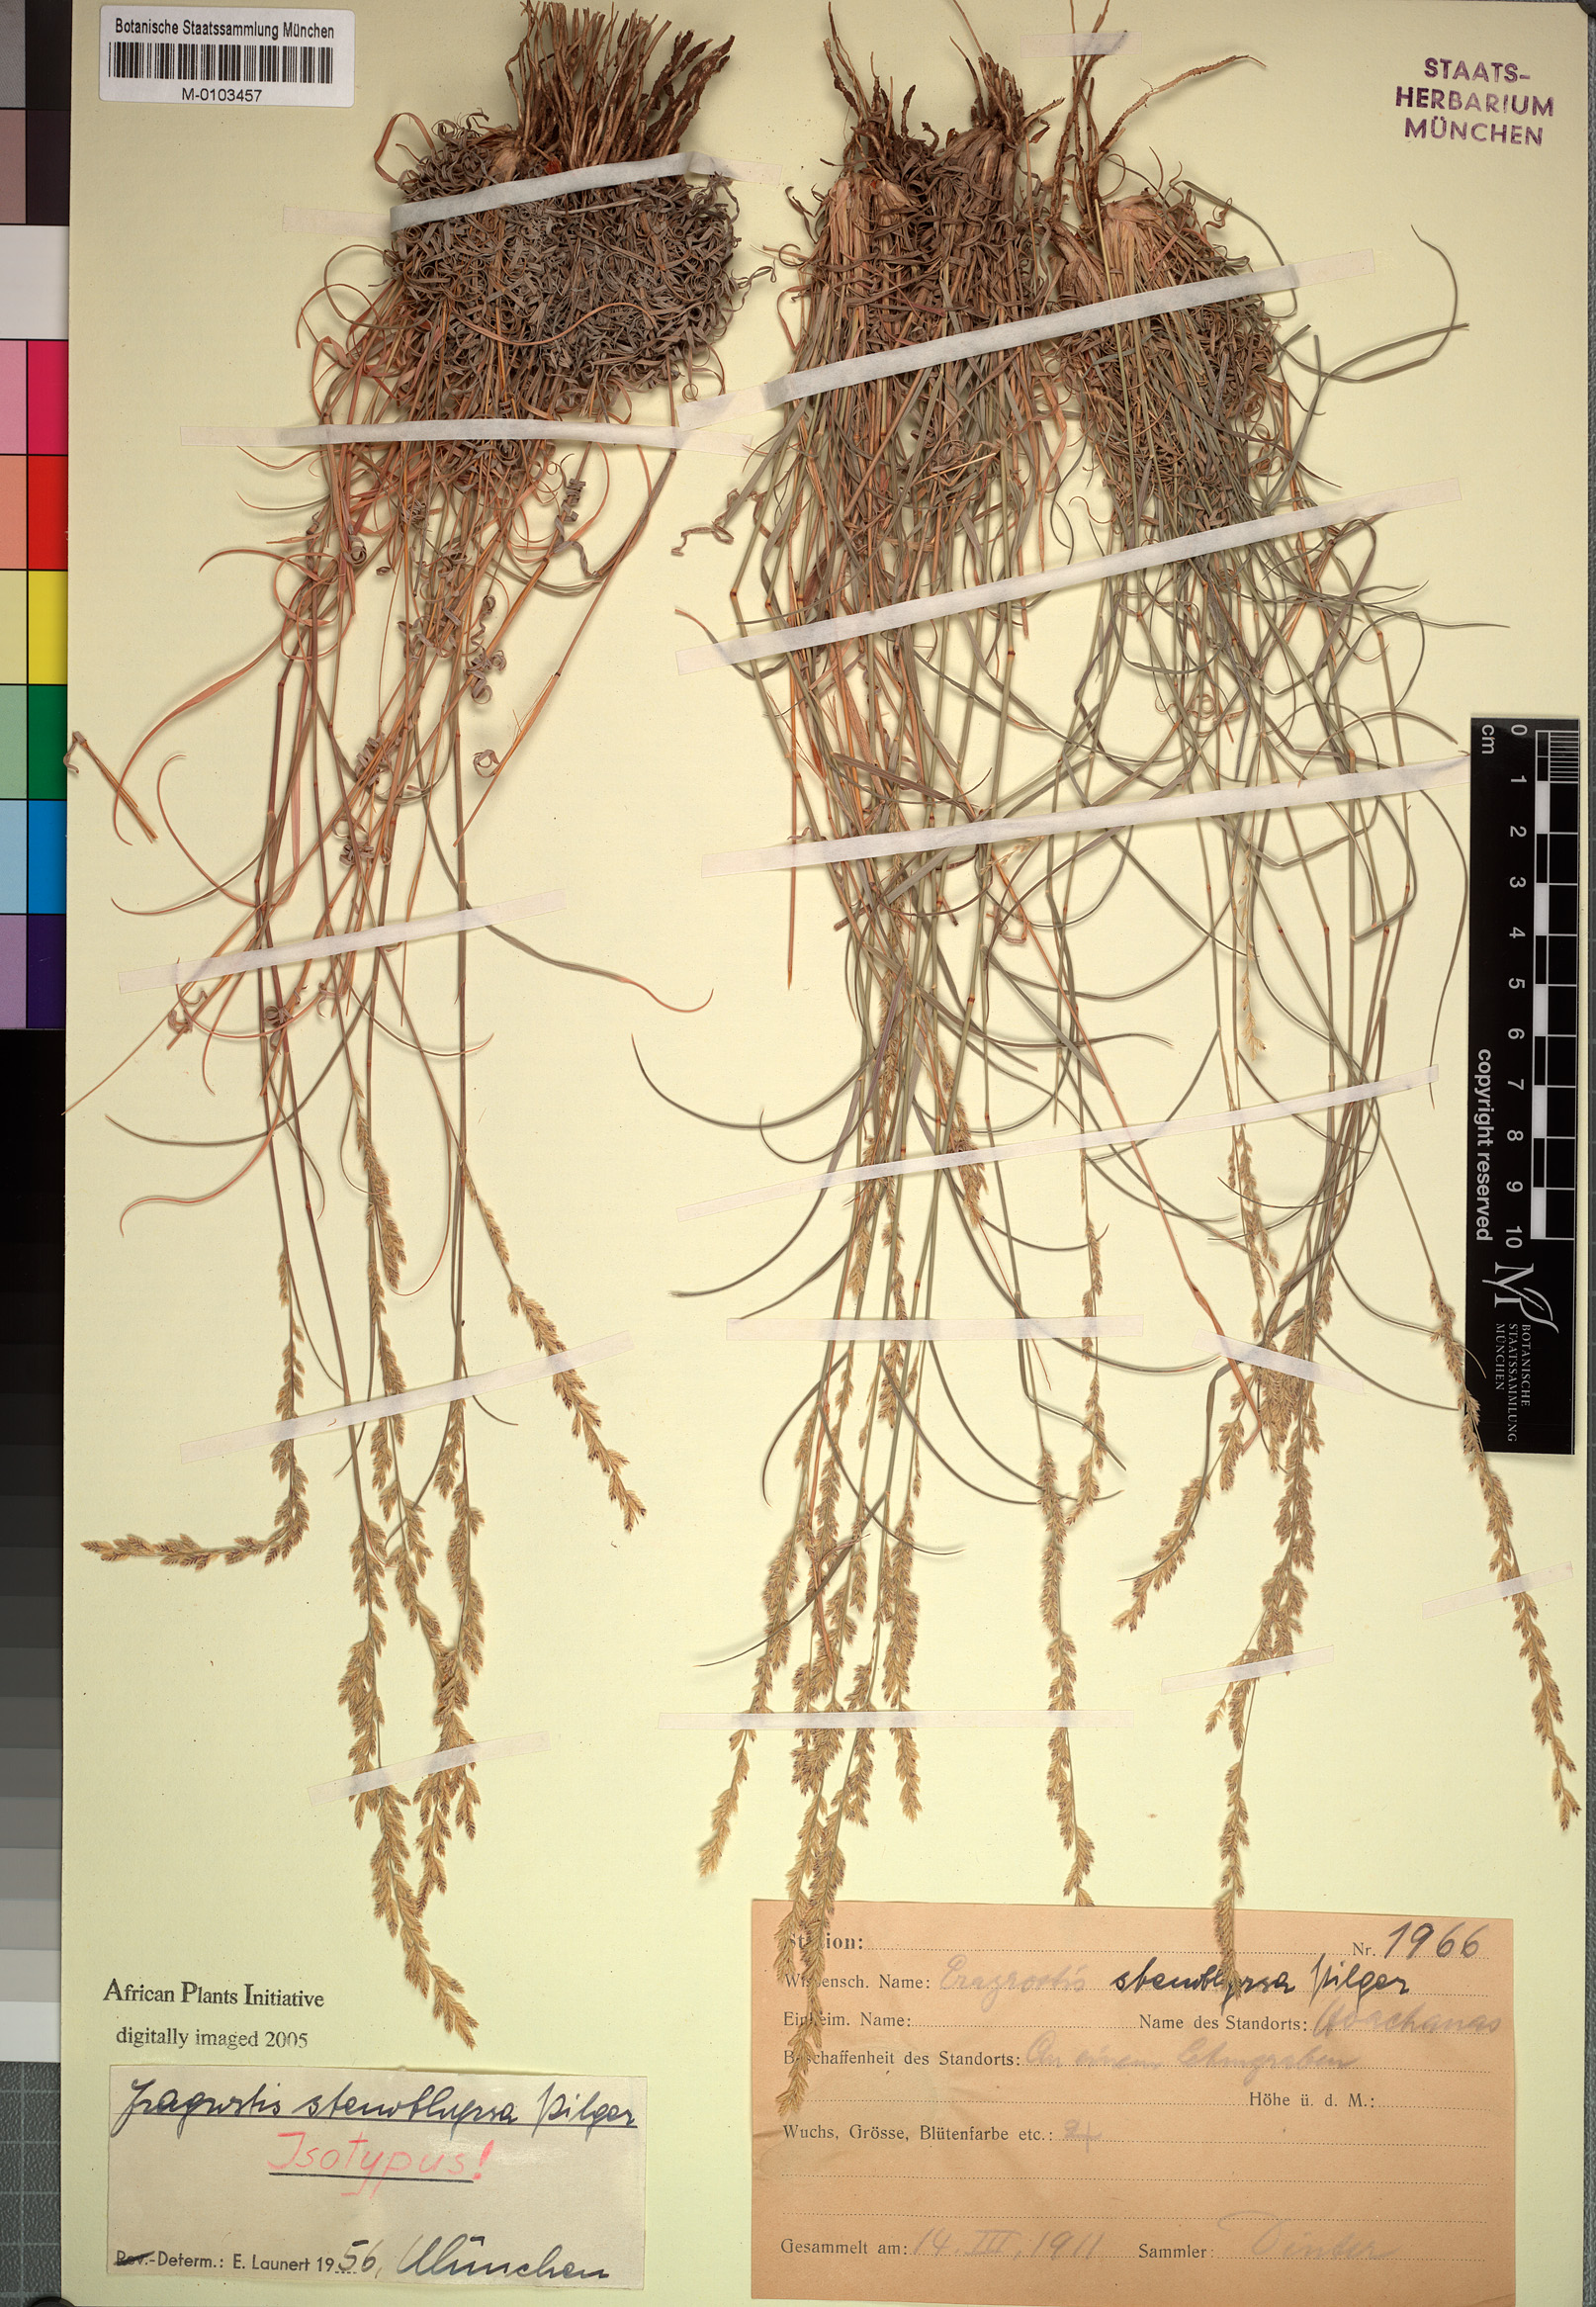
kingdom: Plantae
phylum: Tracheophyta
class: Liliopsida
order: Poales
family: Poaceae
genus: Eragrostis
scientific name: Eragrostis stenothyrsa
